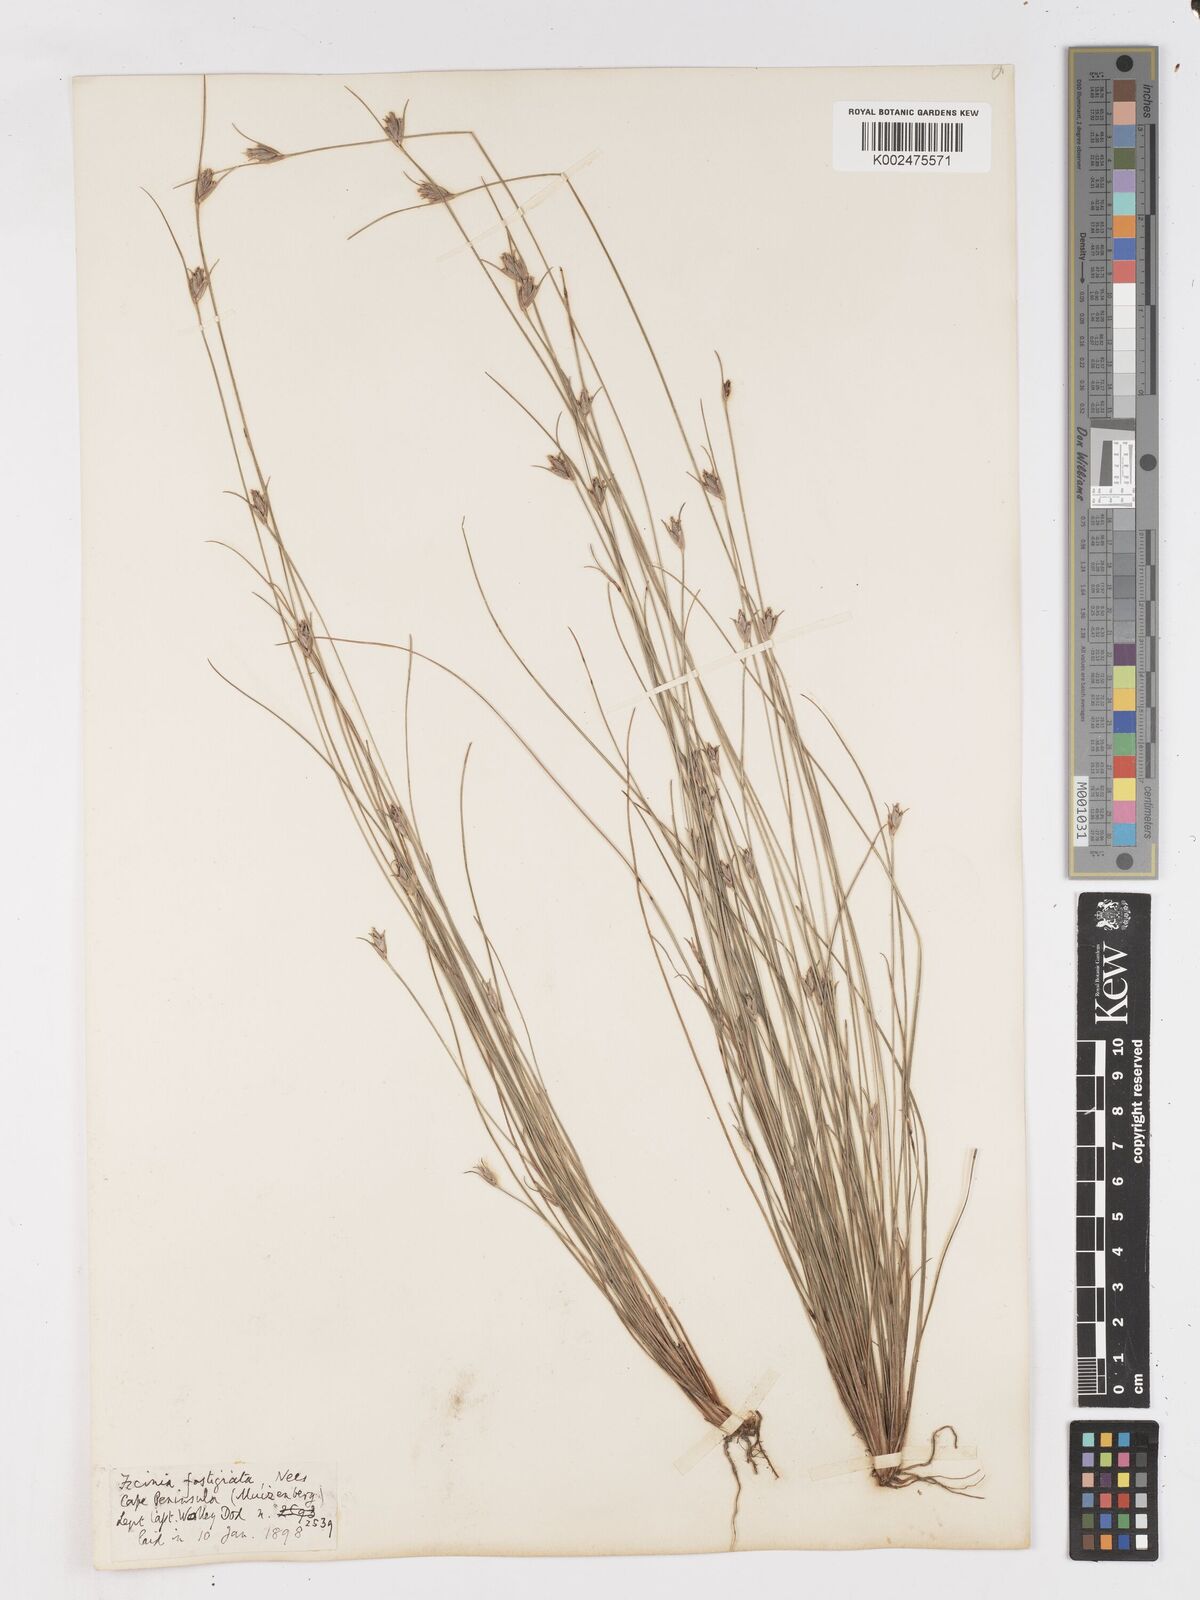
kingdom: Plantae
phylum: Tracheophyta
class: Liliopsida
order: Poales
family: Cyperaceae
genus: Ficinia
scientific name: Ficinia fastigiata
